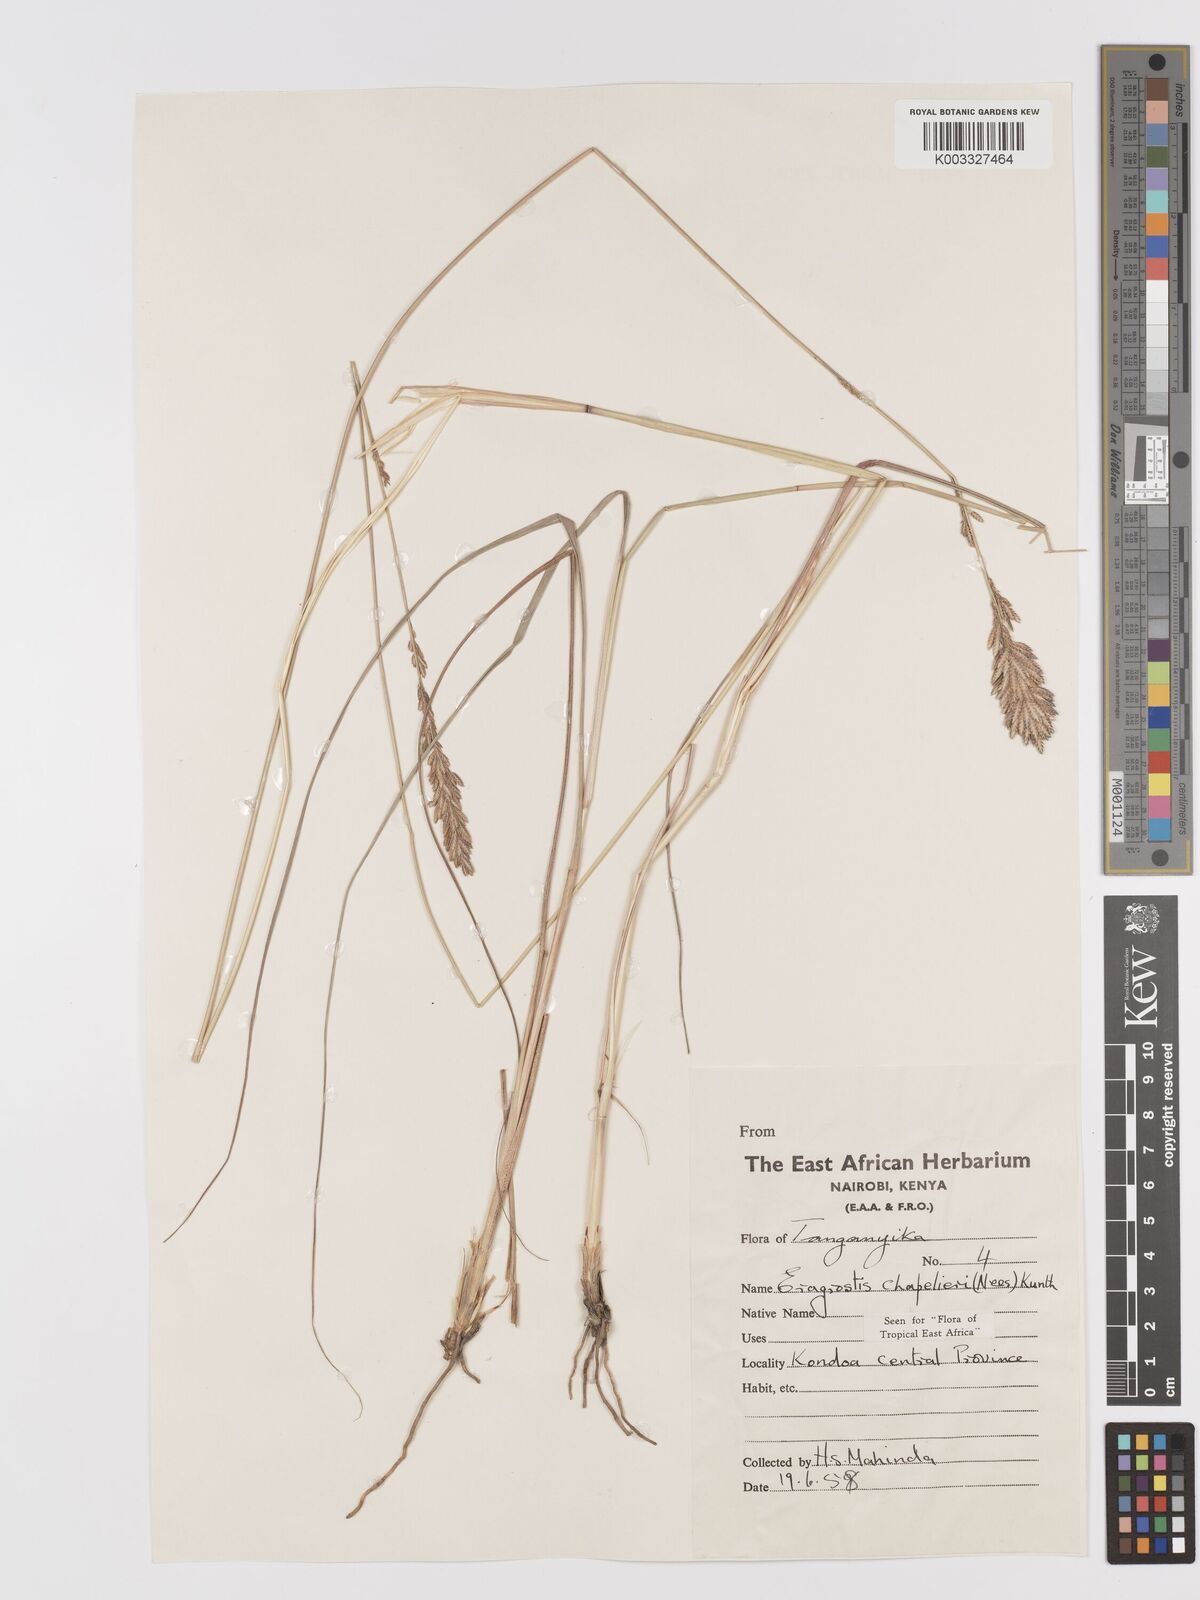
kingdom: Plantae
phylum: Tracheophyta
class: Liliopsida
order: Poales
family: Poaceae
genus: Eragrostis
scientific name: Eragrostis chapelieri
